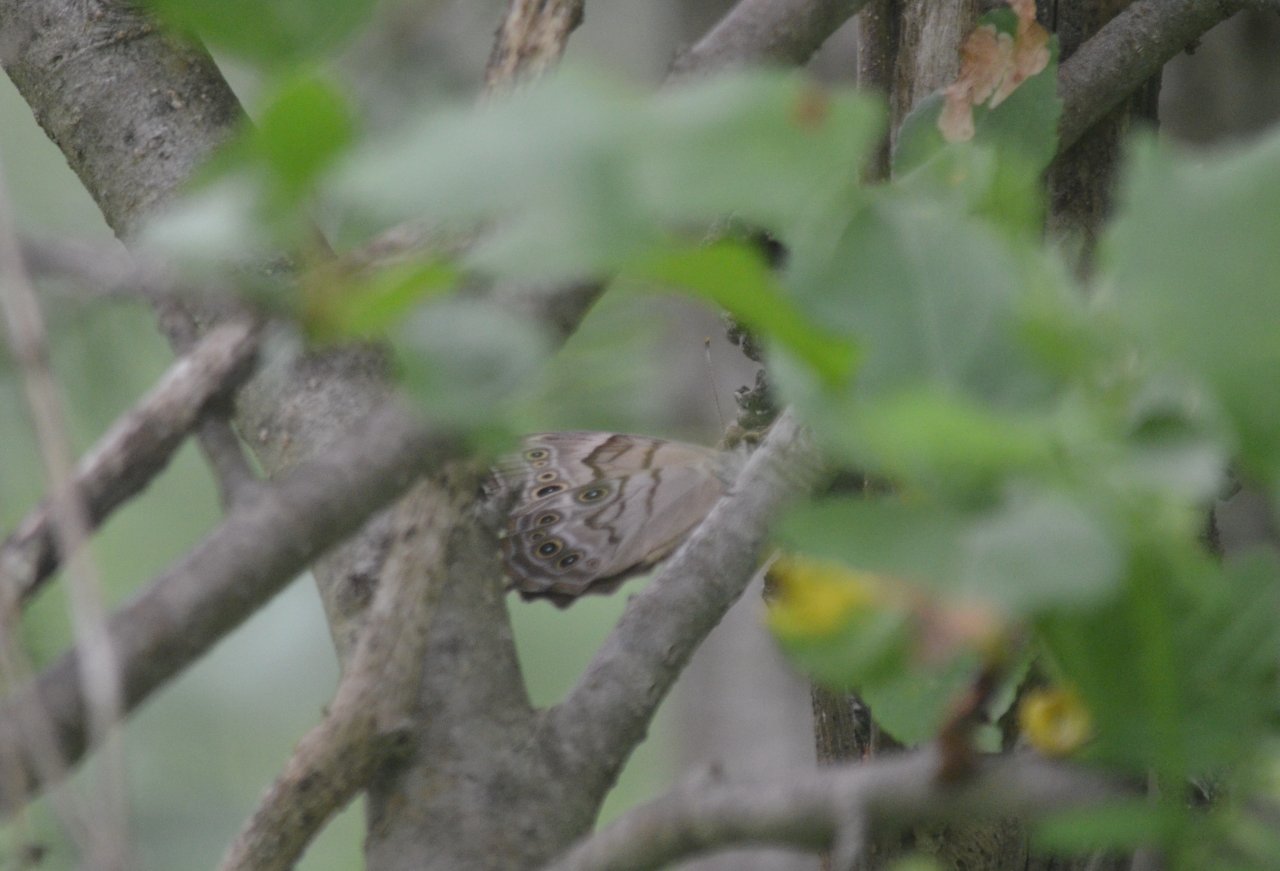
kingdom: Animalia
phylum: Arthropoda
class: Insecta
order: Lepidoptera
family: Nymphalidae
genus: Lethe
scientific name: Lethe anthedon
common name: Northern Pearly-Eye
